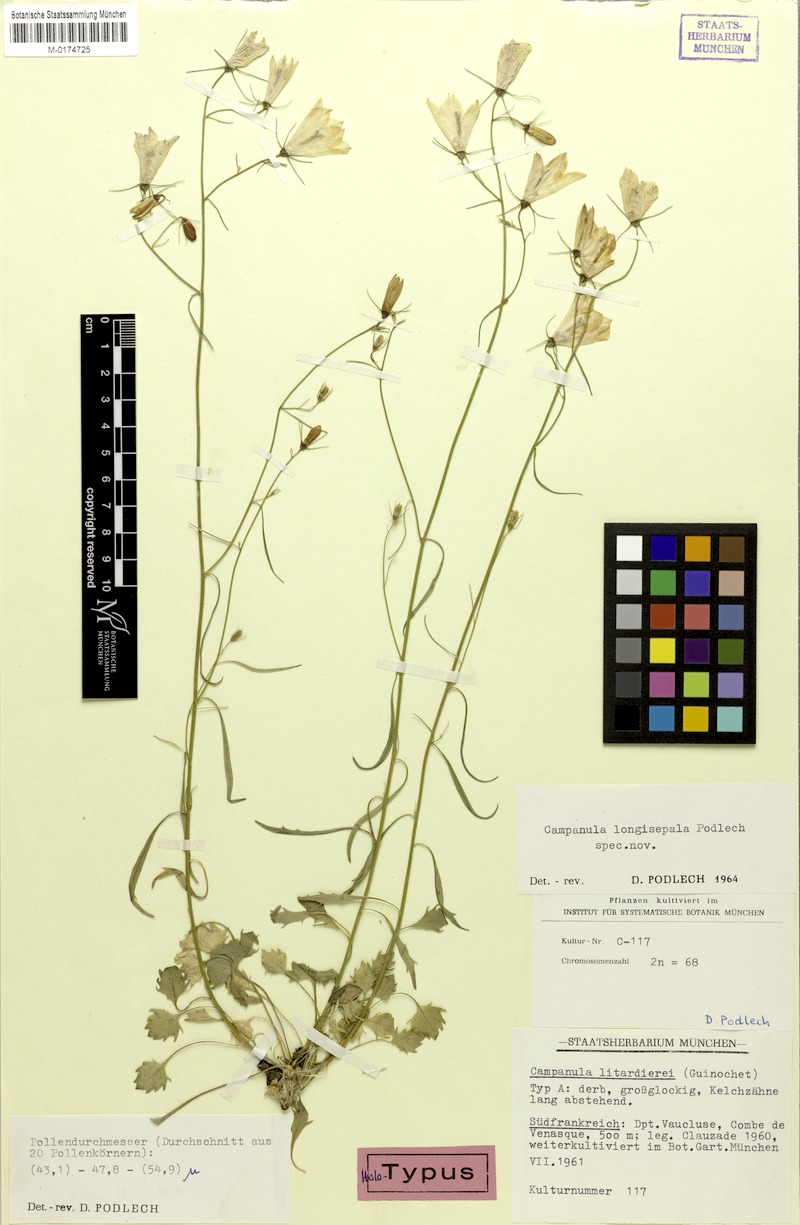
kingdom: Plantae
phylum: Tracheophyta
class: Magnoliopsida
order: Asterales
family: Campanulaceae
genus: Campanula
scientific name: Campanula longisepala
